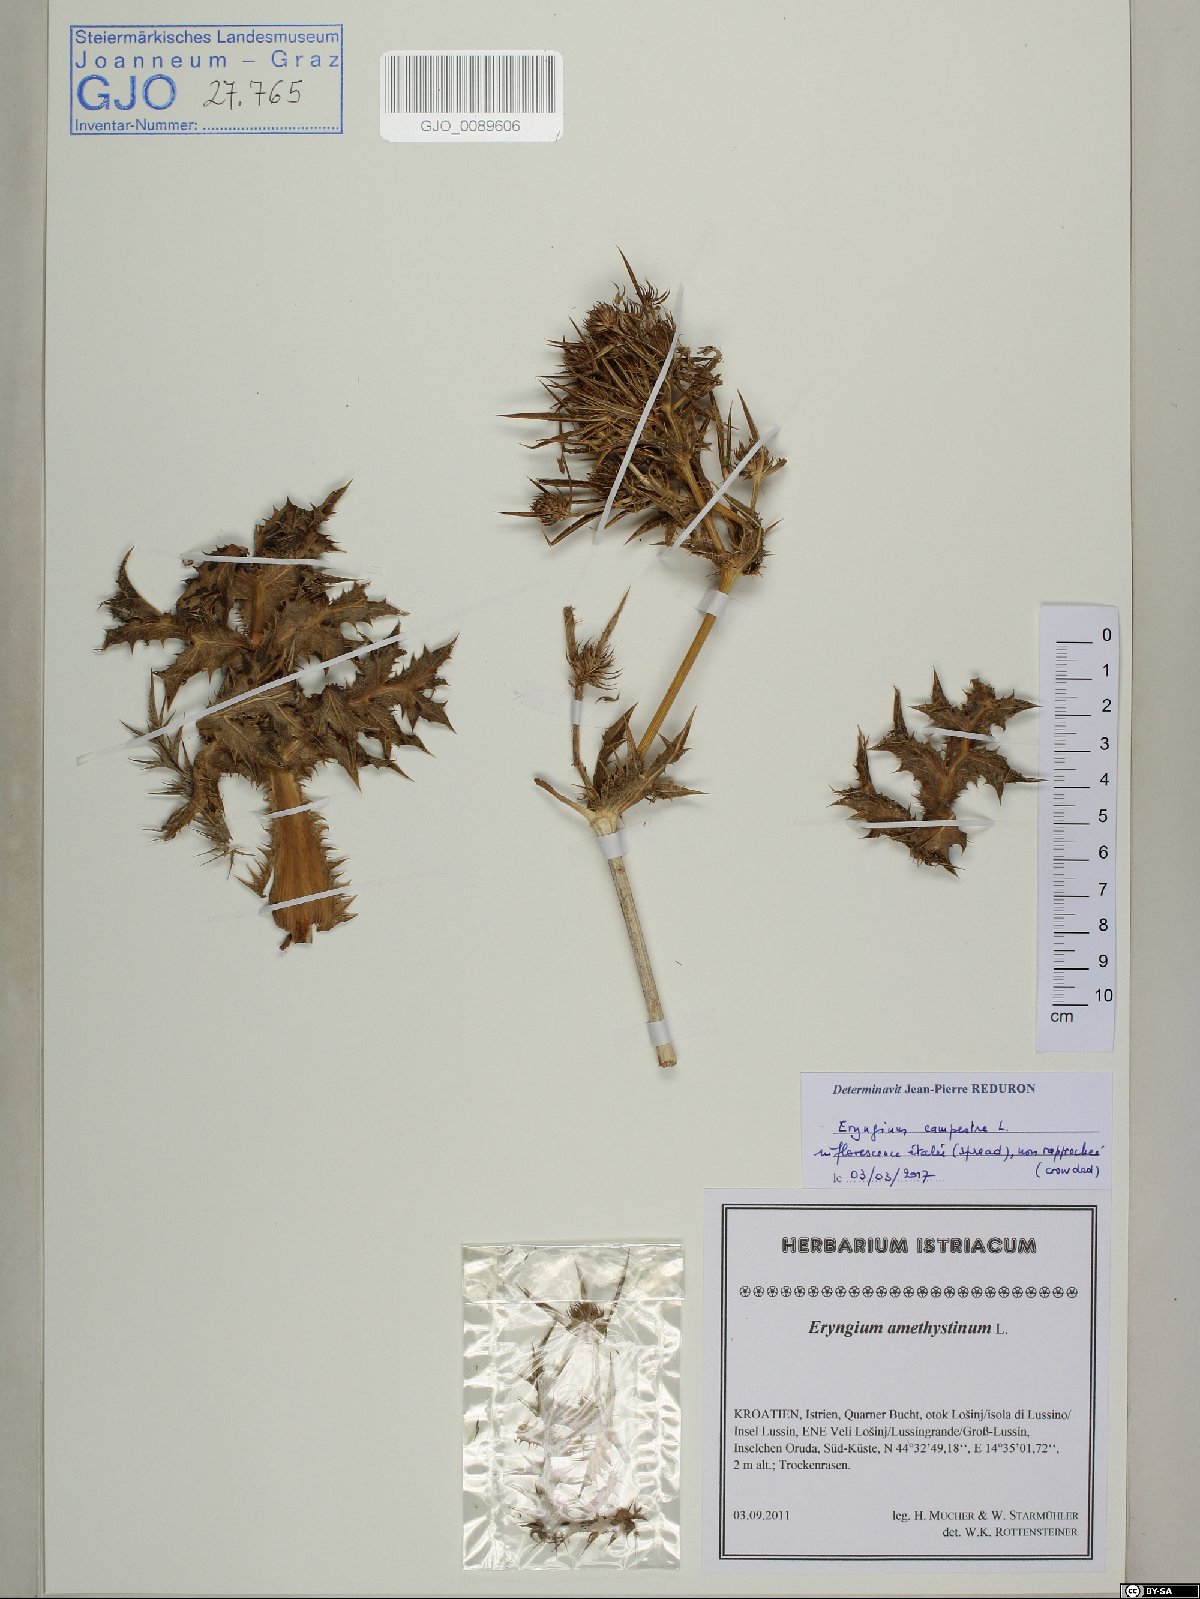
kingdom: Plantae
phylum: Tracheophyta
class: Magnoliopsida
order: Apiales
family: Apiaceae
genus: Eryngium
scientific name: Eryngium campestre
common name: Field eryngo
